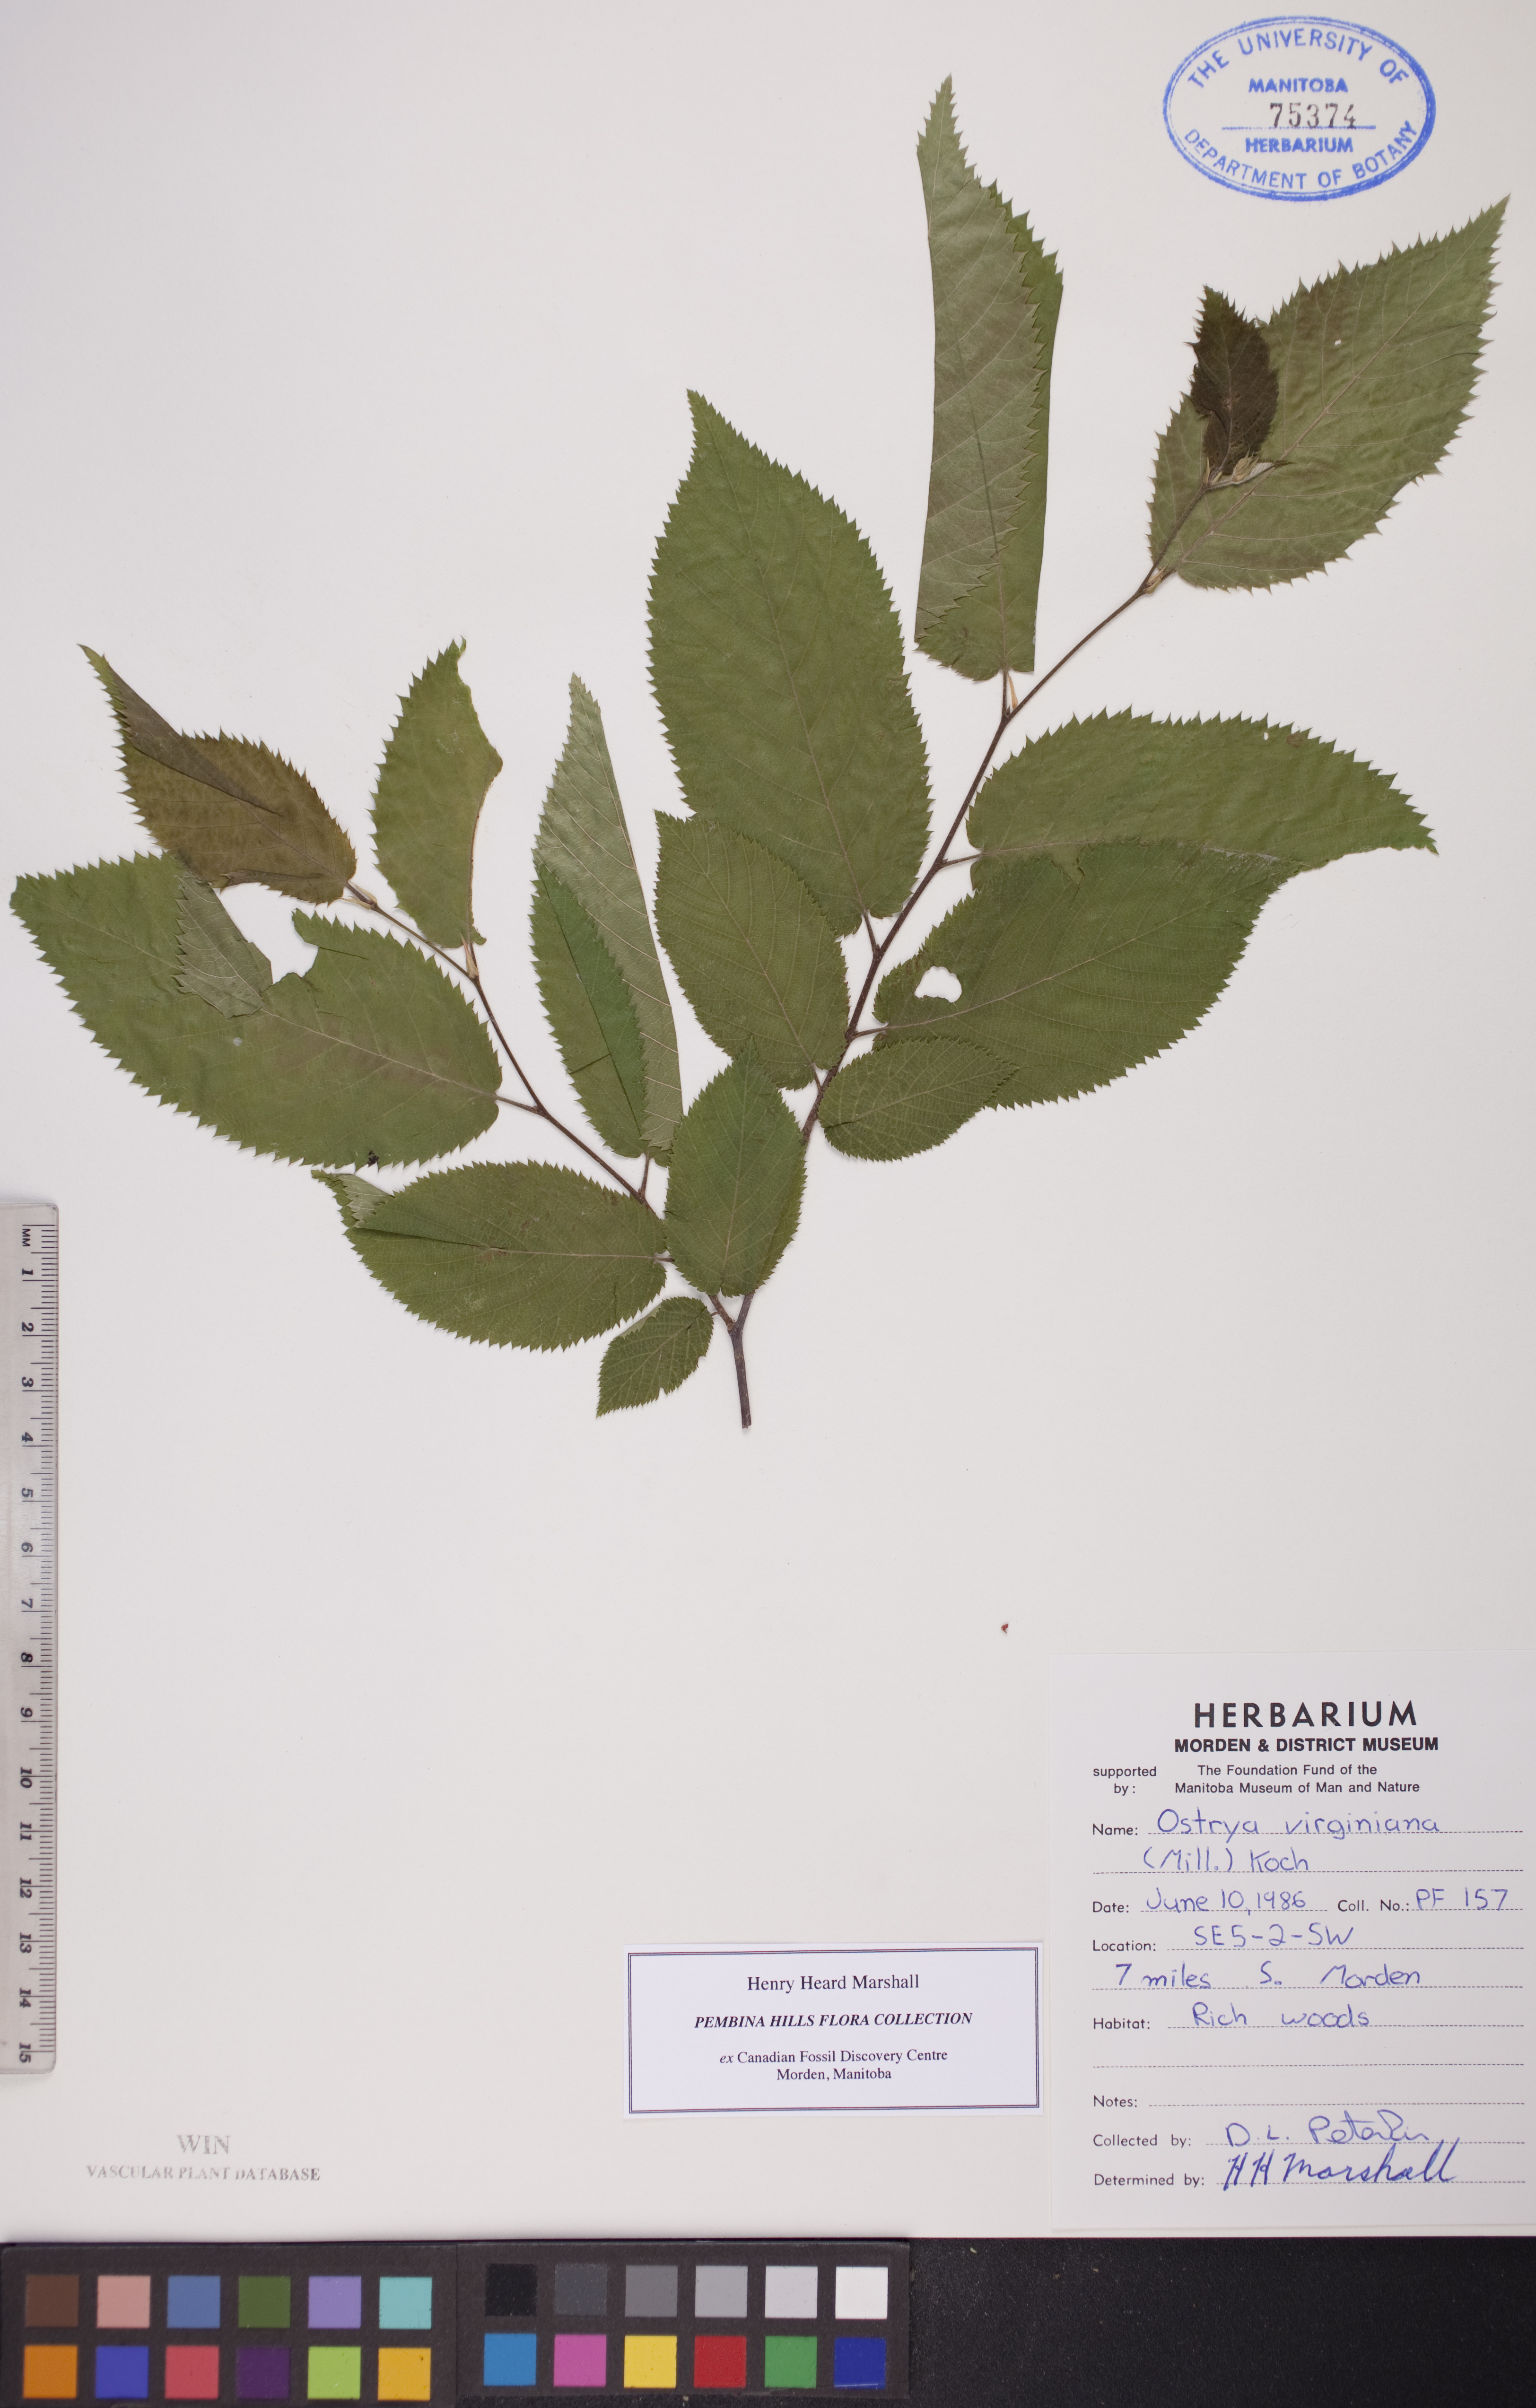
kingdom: Plantae
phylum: Tracheophyta
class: Magnoliopsida
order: Fagales
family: Betulaceae
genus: Ostrya
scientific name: Ostrya virginiana
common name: Ironwood
